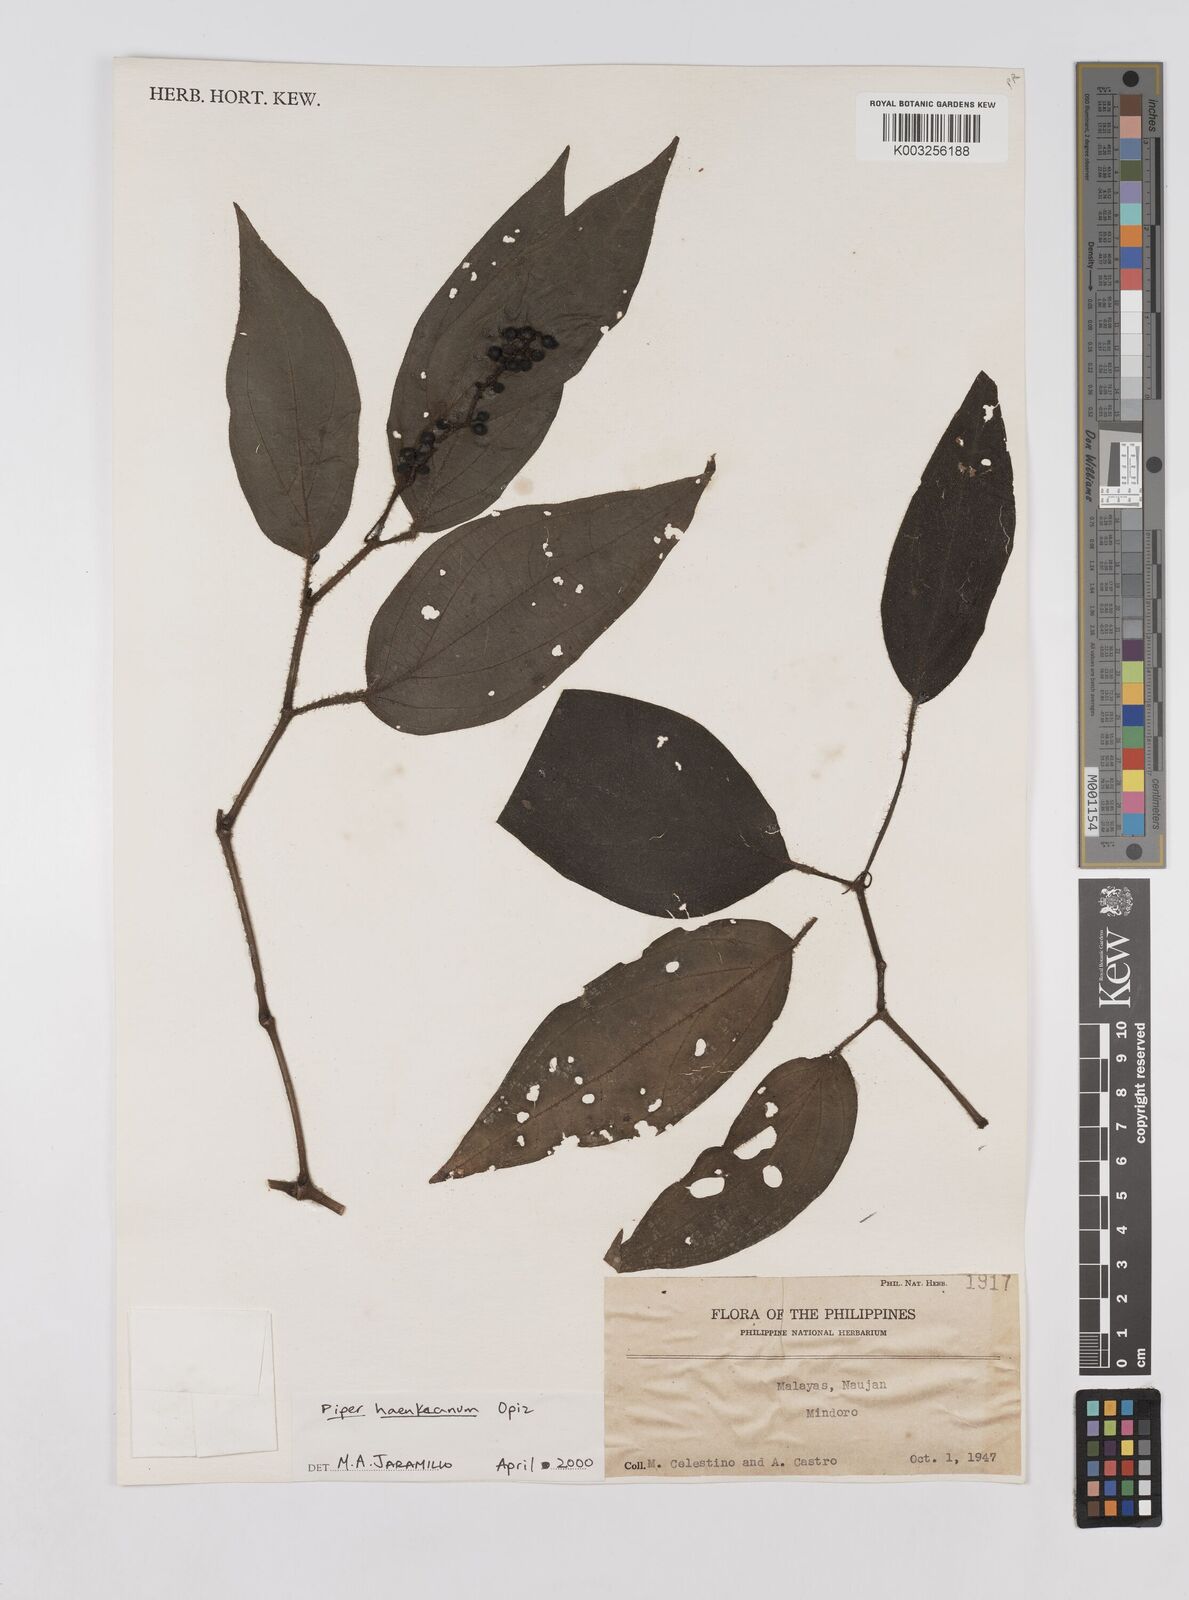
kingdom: Plantae
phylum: Tracheophyta
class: Magnoliopsida
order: Piperales
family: Piperaceae
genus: Piper
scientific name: Piper lanatum
